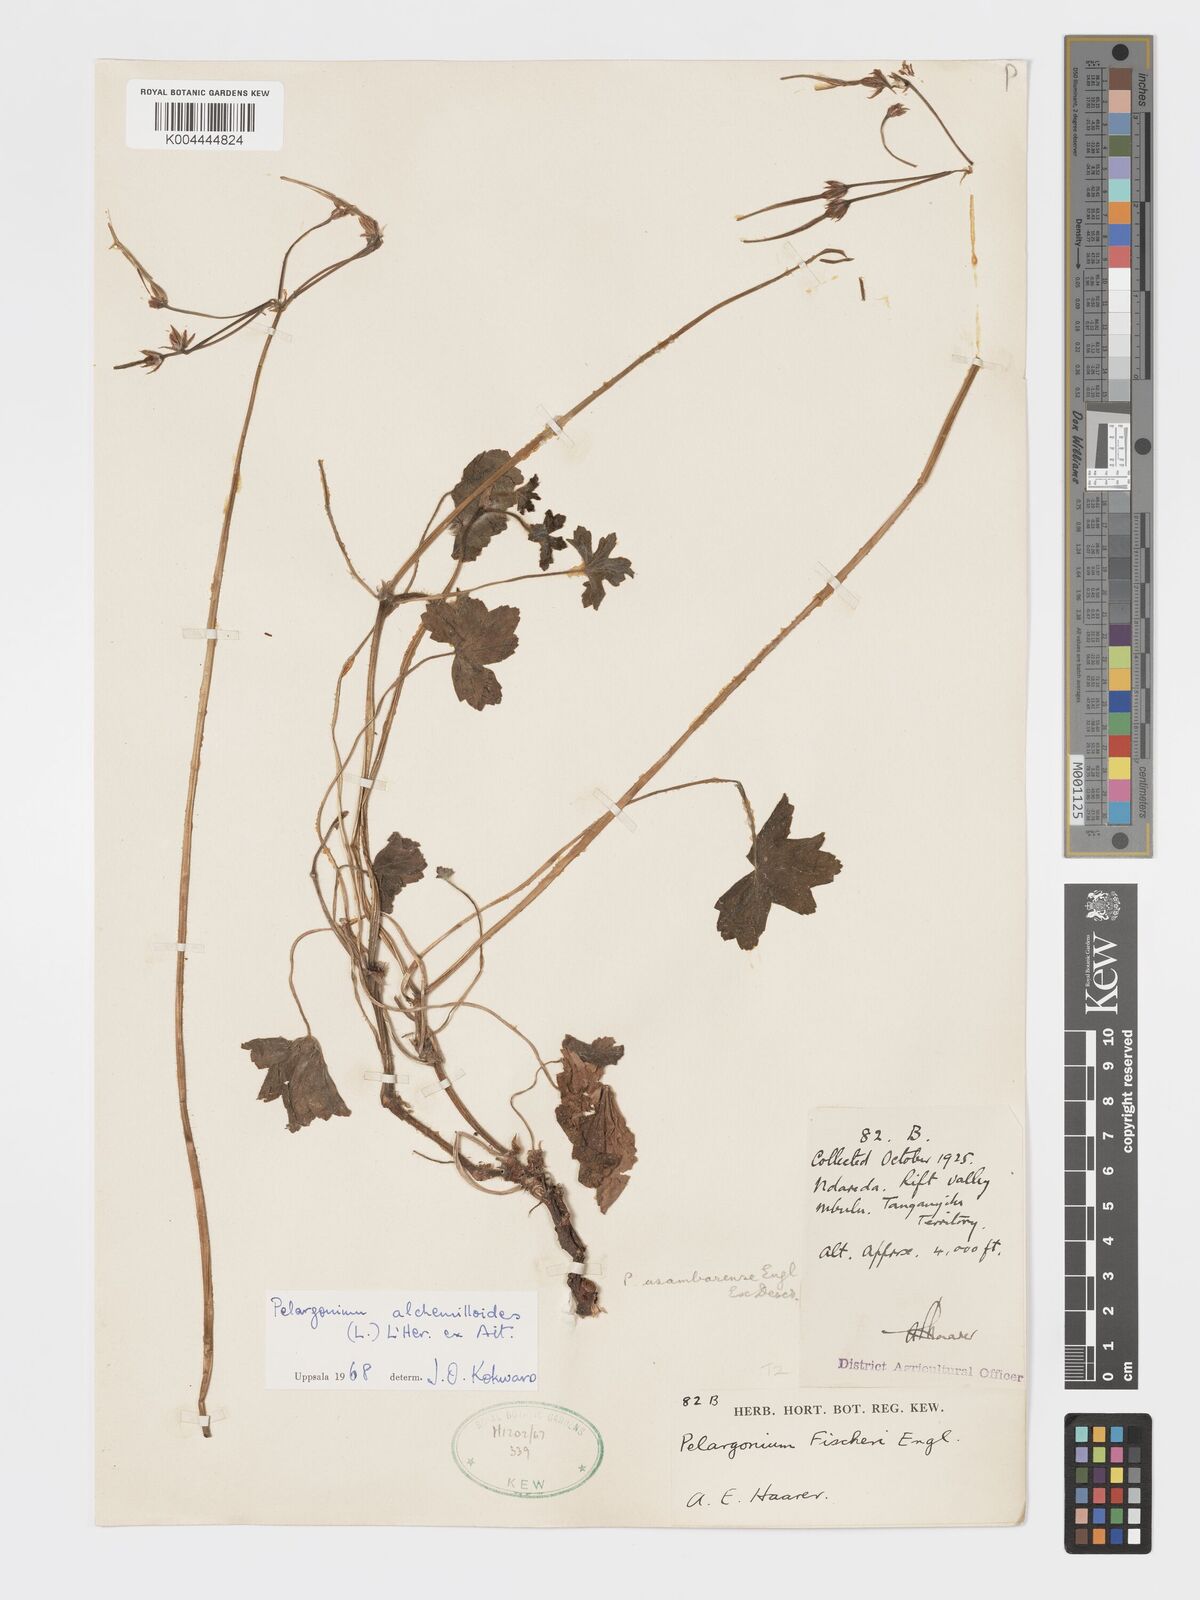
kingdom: Plantae
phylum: Tracheophyta
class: Magnoliopsida
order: Geraniales
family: Geraniaceae
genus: Pelargonium
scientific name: Pelargonium alchemilloides
